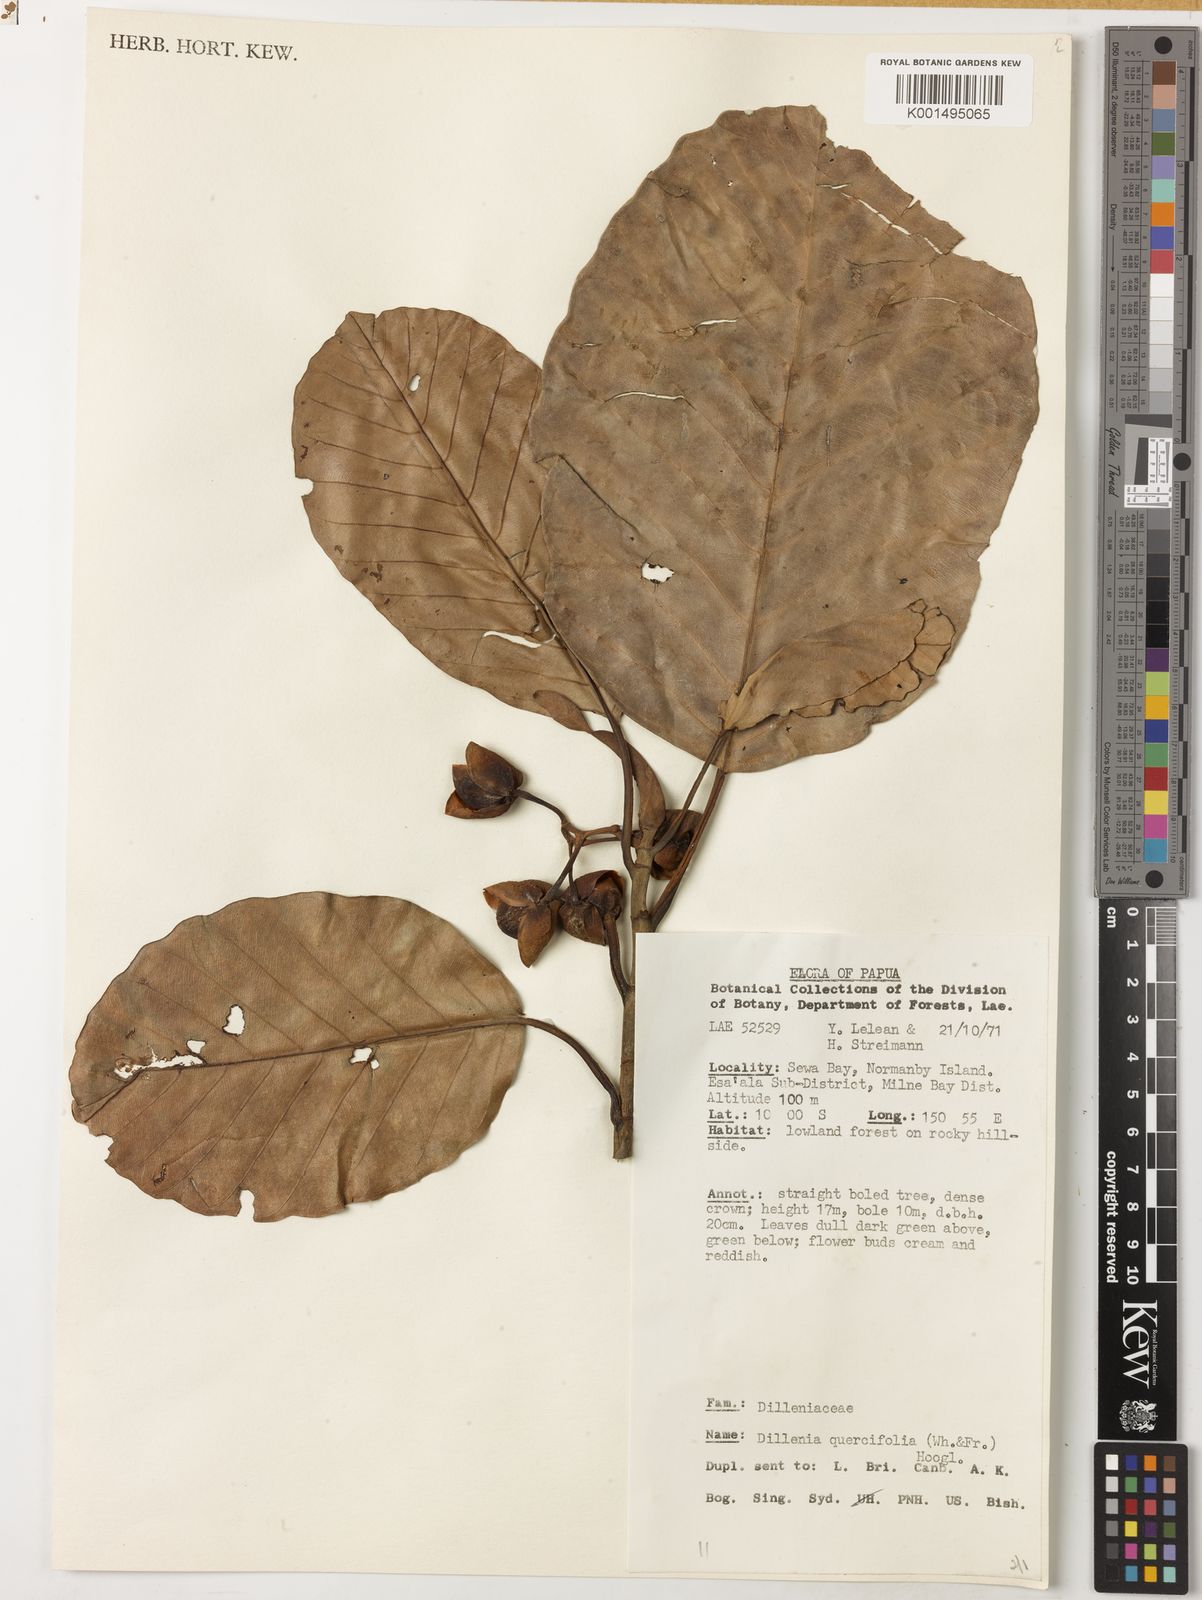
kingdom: Plantae
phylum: Tracheophyta
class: Magnoliopsida
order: Dilleniales
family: Dilleniaceae
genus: Dillenia
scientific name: Dillenia quercifolia
